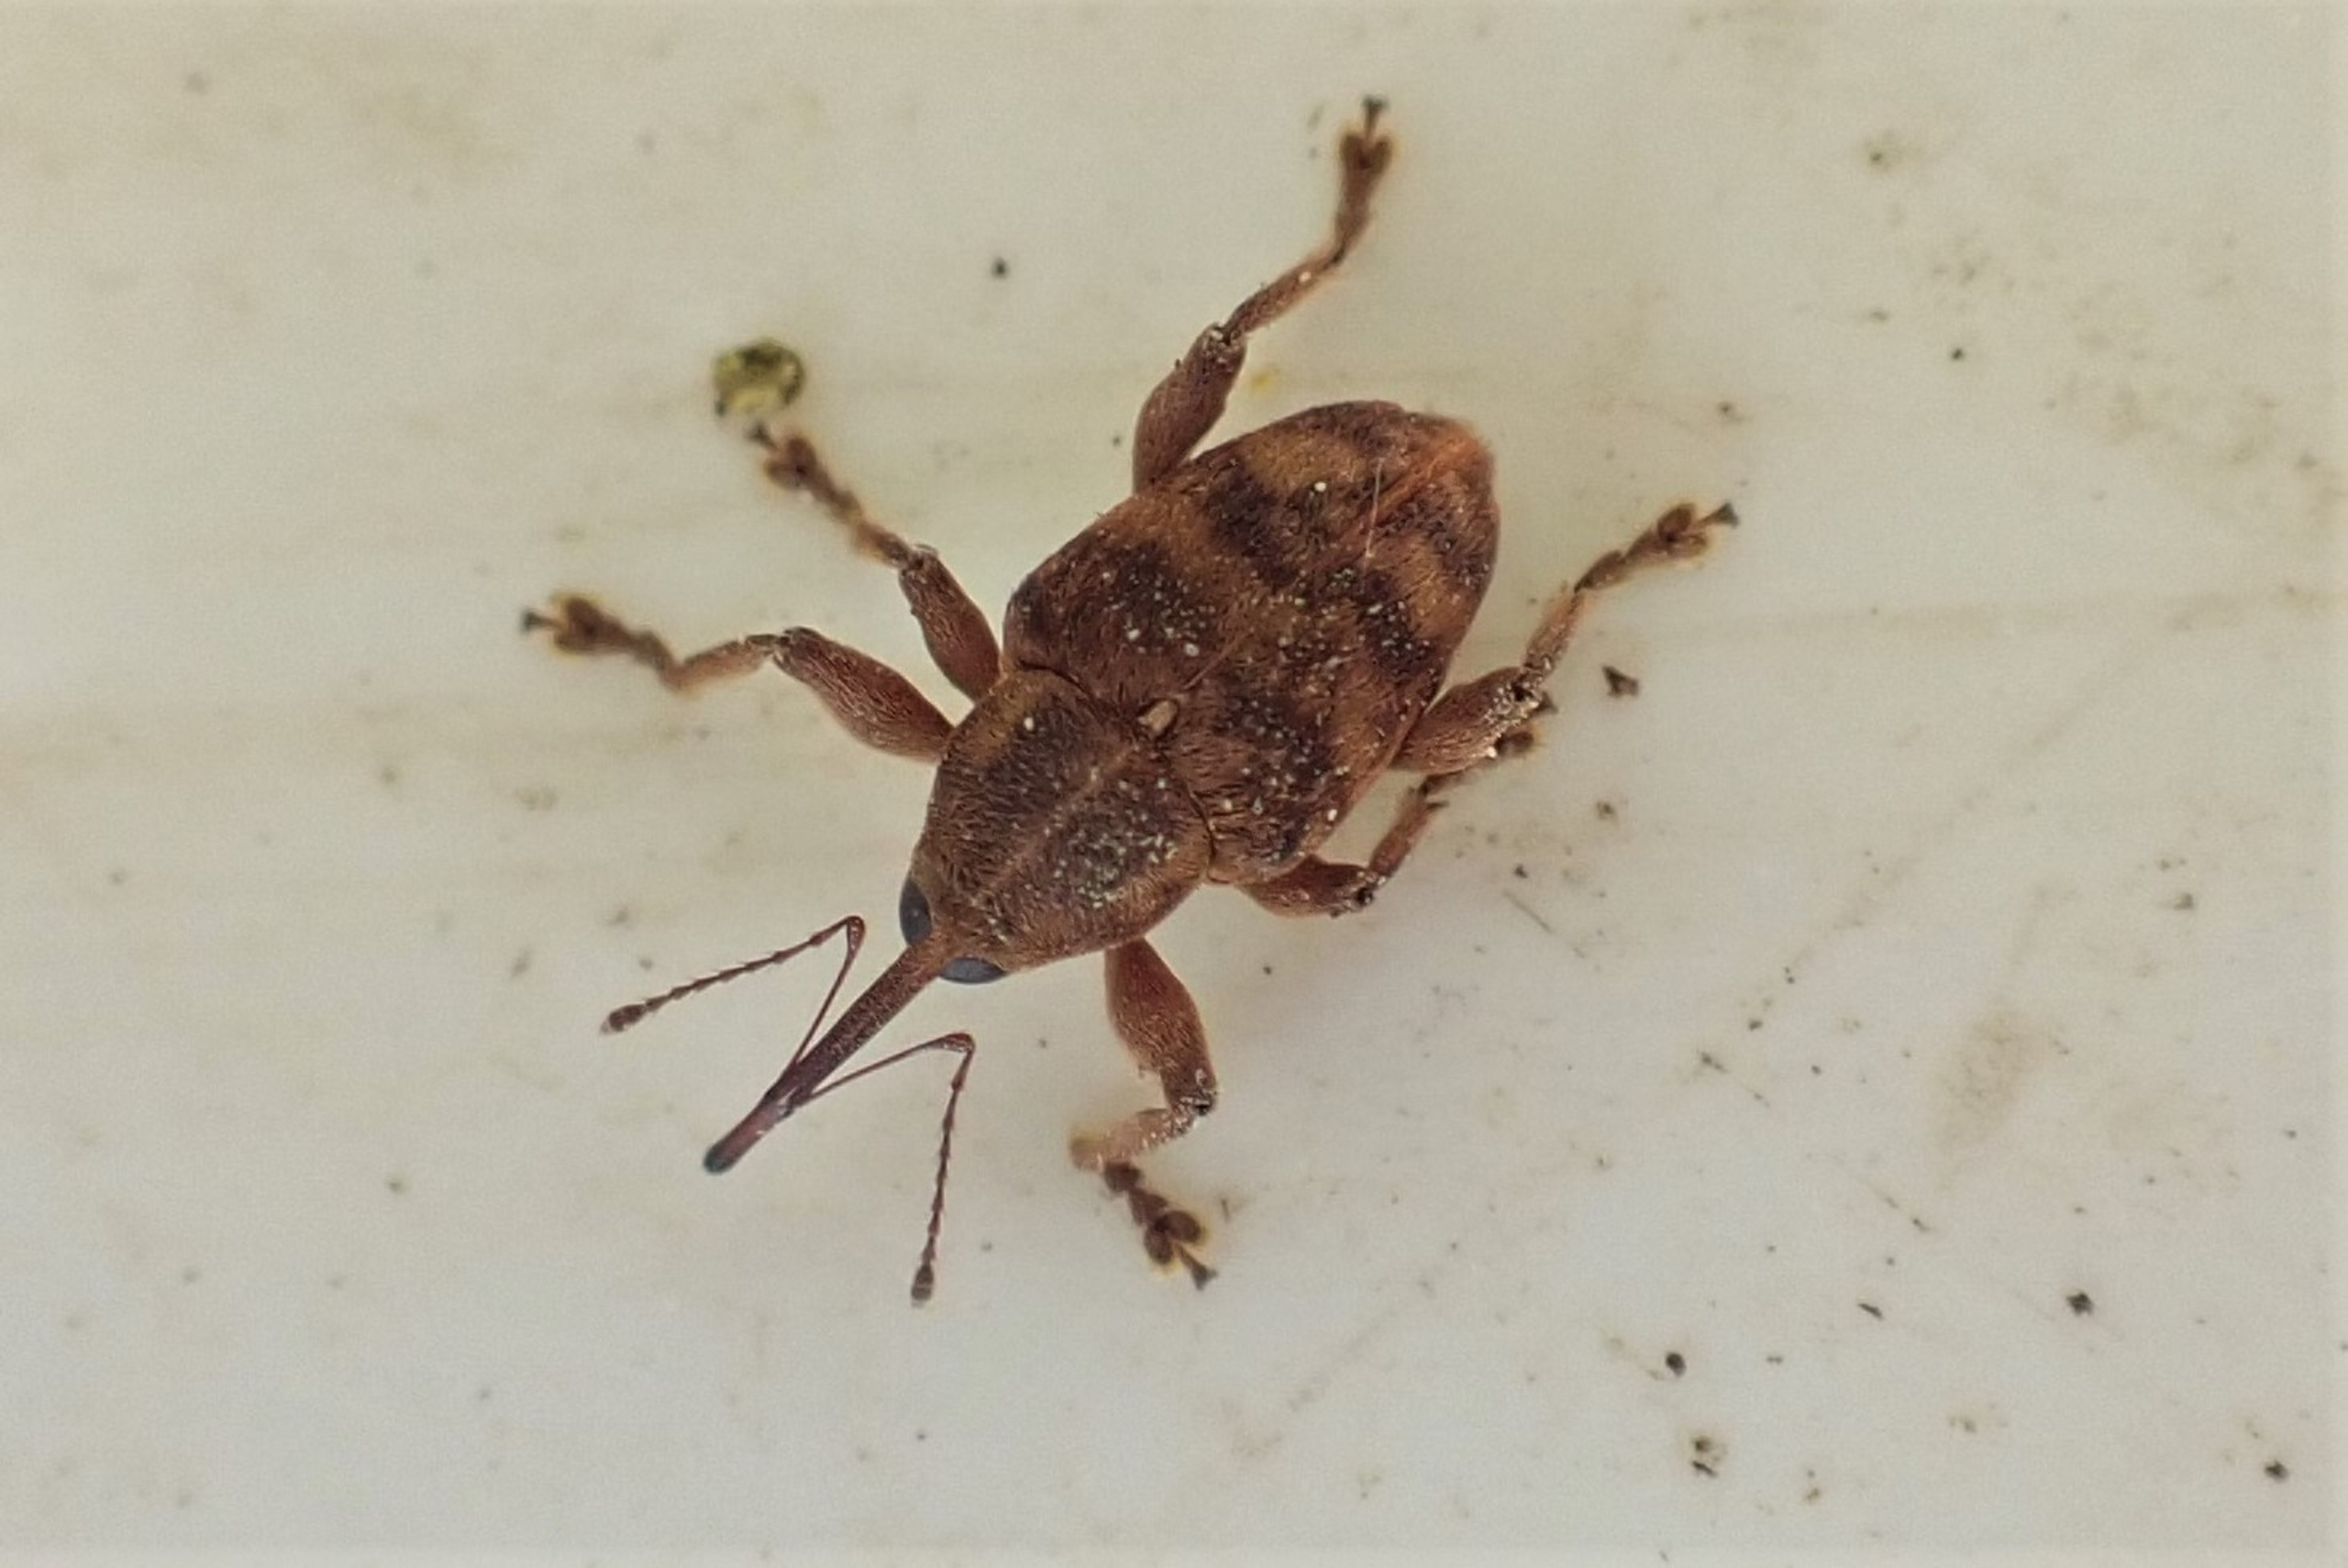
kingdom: Animalia
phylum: Arthropoda
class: Insecta
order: Coleoptera
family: Curculionidae
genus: Curculio
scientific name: Curculio venosus
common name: Agernsnudebille
